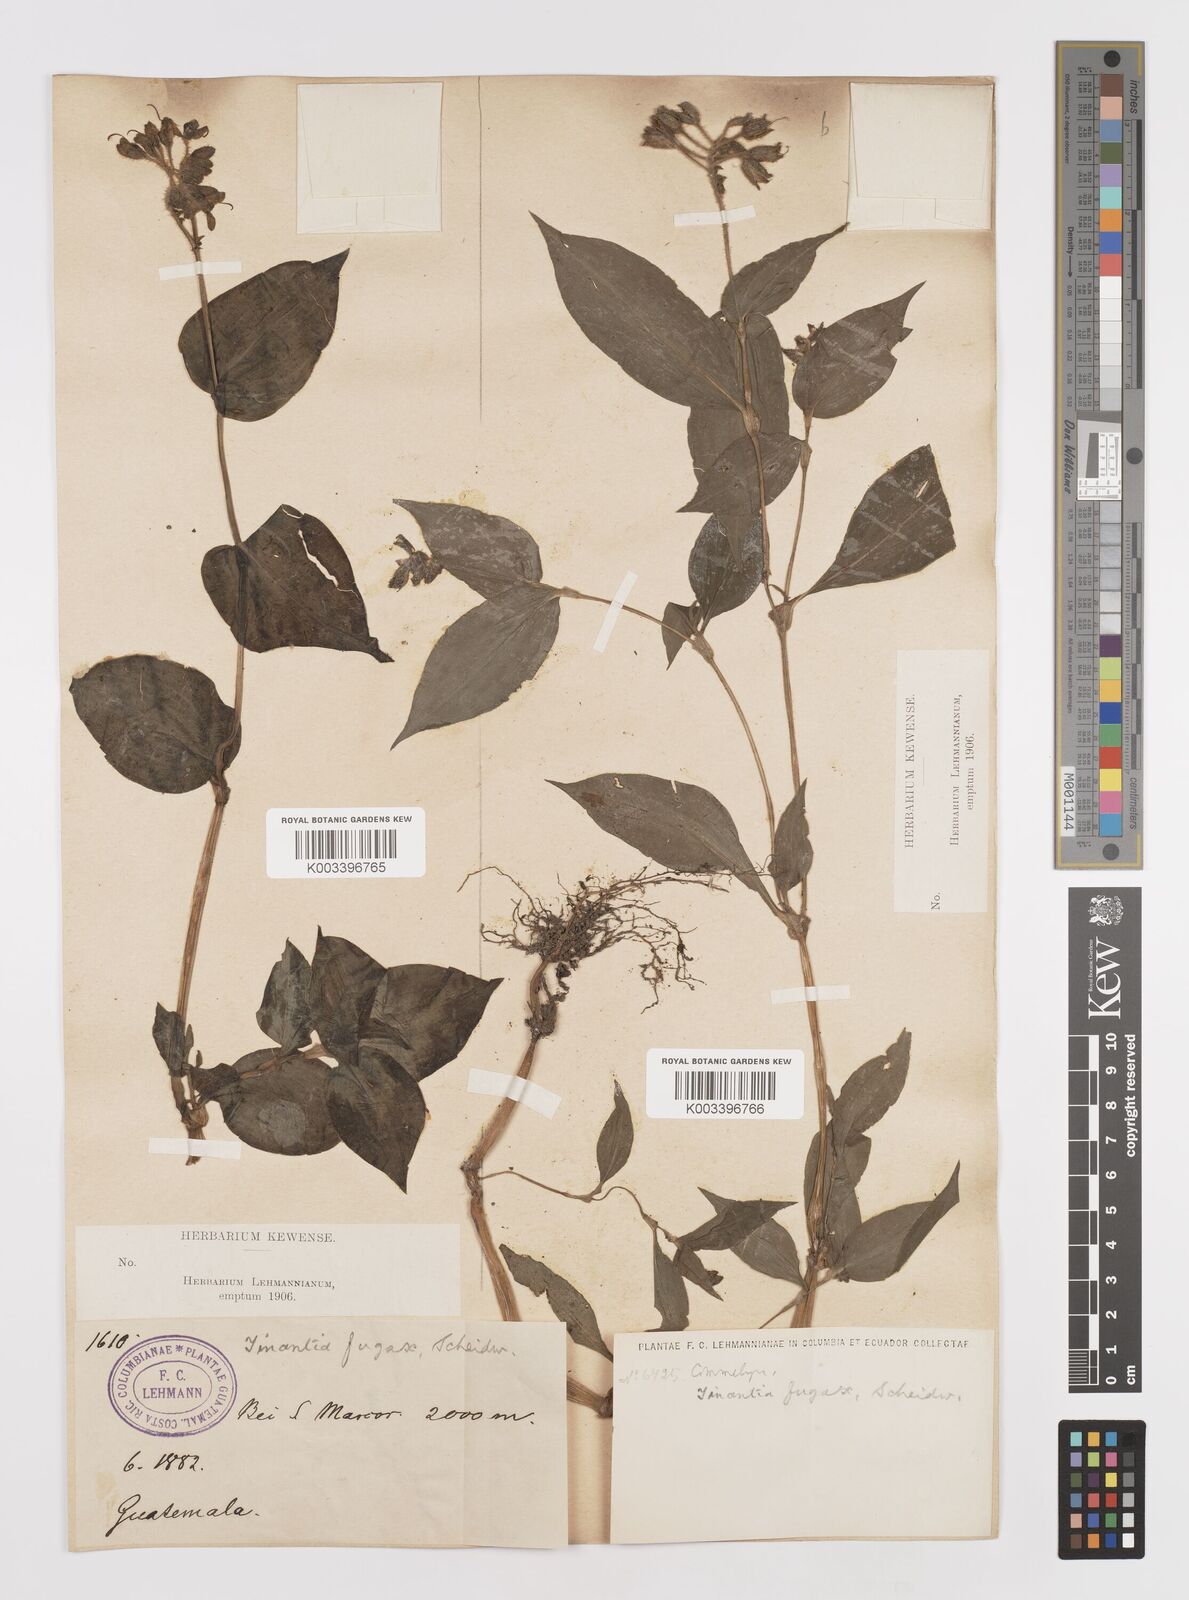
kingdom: Plantae
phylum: Tracheophyta
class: Liliopsida
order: Commelinales
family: Commelinaceae
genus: Tinantia
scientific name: Tinantia erecta
